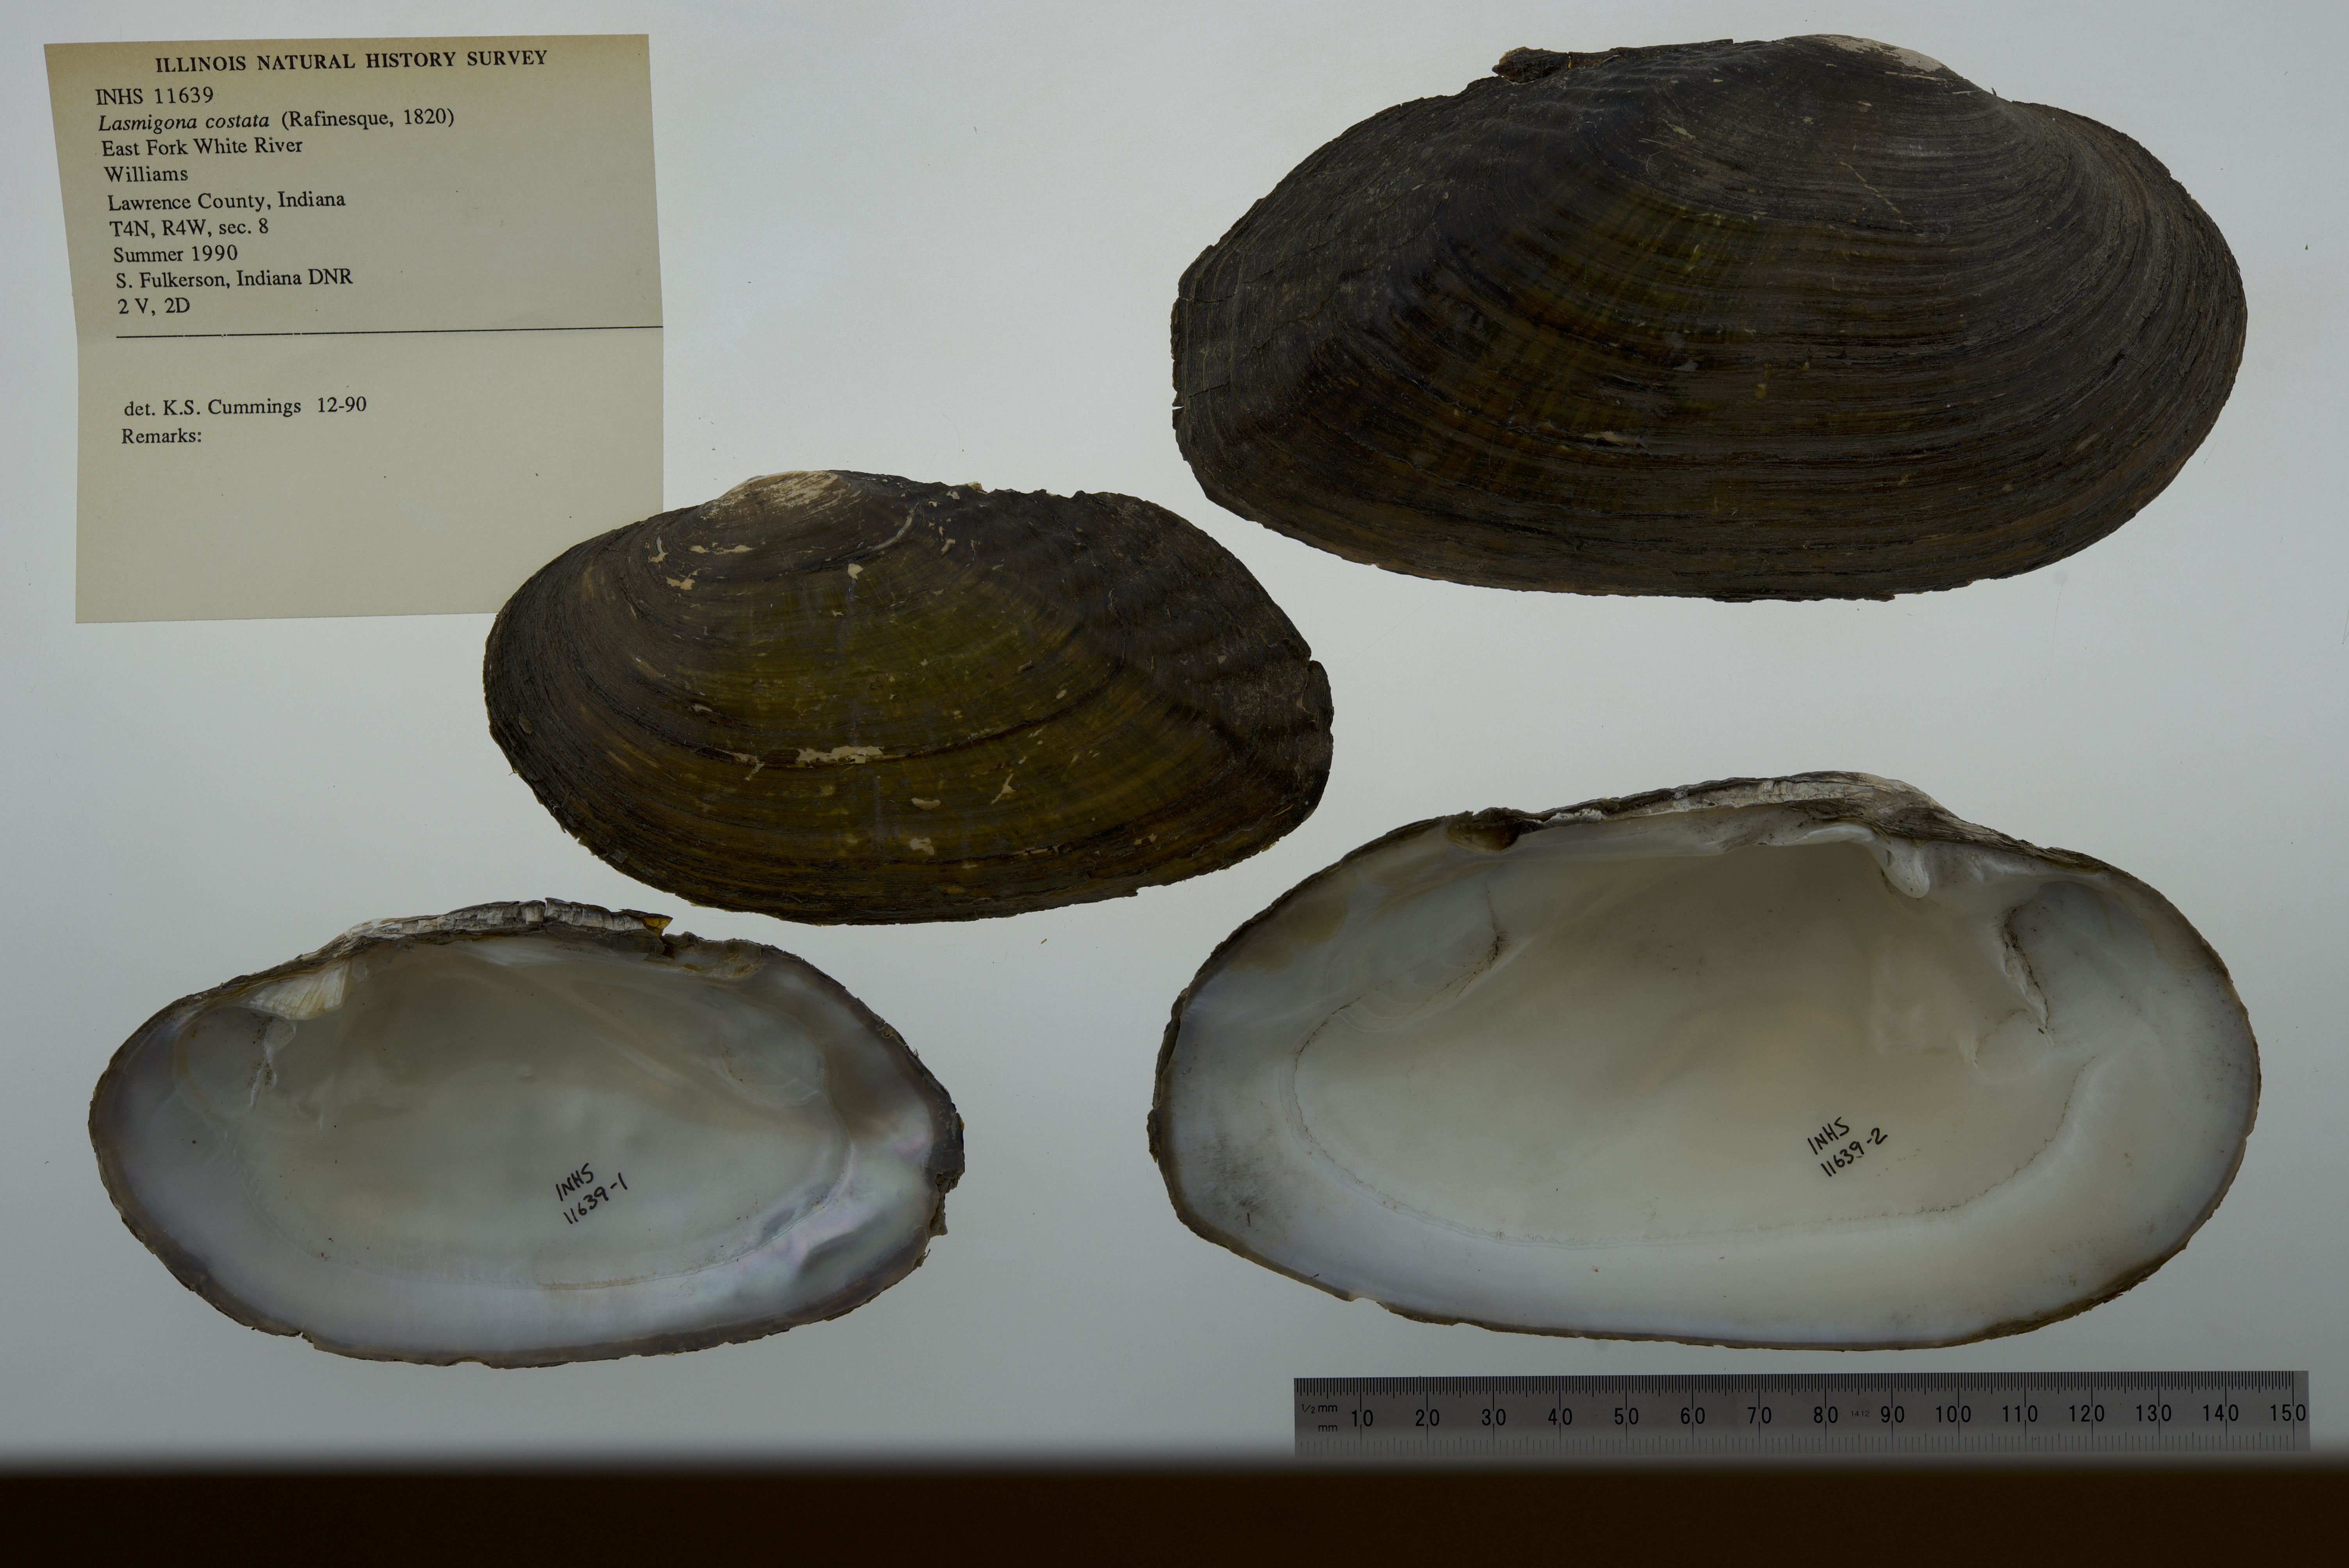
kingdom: Animalia
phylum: Mollusca
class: Bivalvia
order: Unionida
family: Unionidae
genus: Lasmigona
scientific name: Lasmigona costata
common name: Flutedshell
